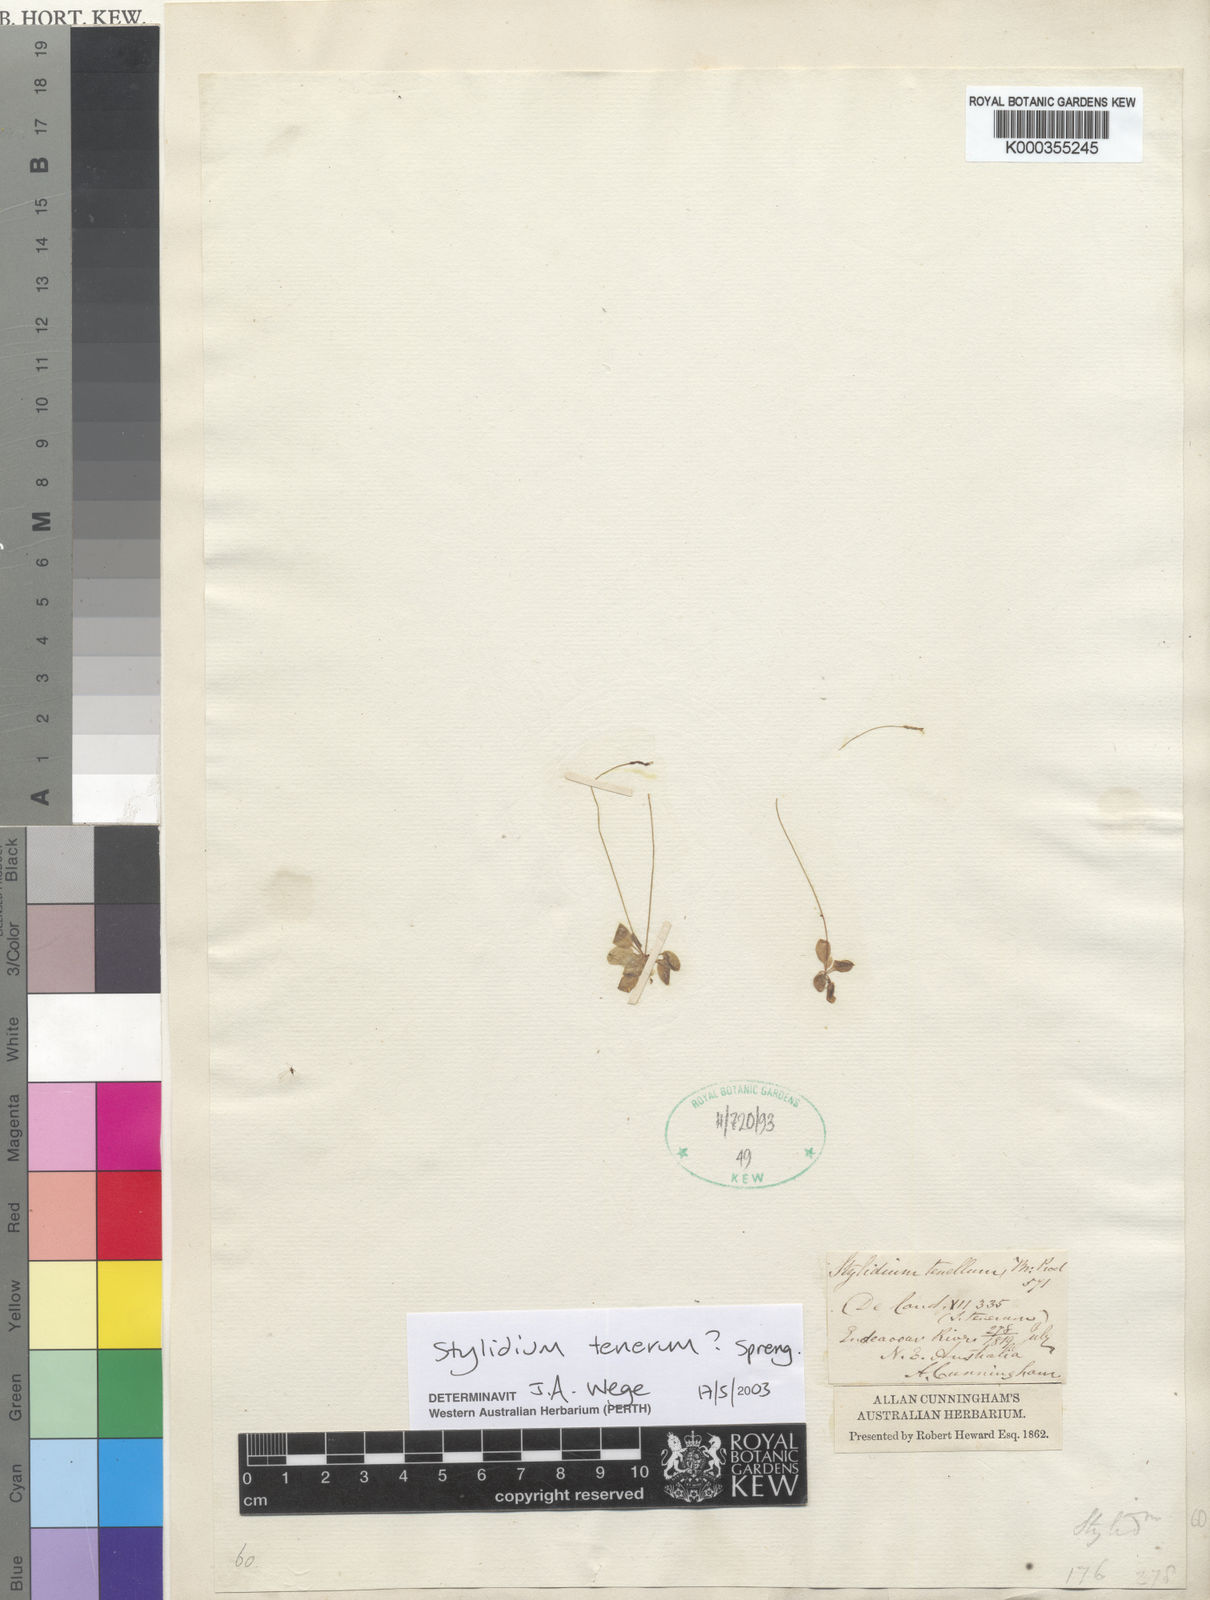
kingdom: Plantae
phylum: Tracheophyta
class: Magnoliopsida
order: Asterales
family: Stylidiaceae
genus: Stylidium
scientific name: Stylidium tenerum
